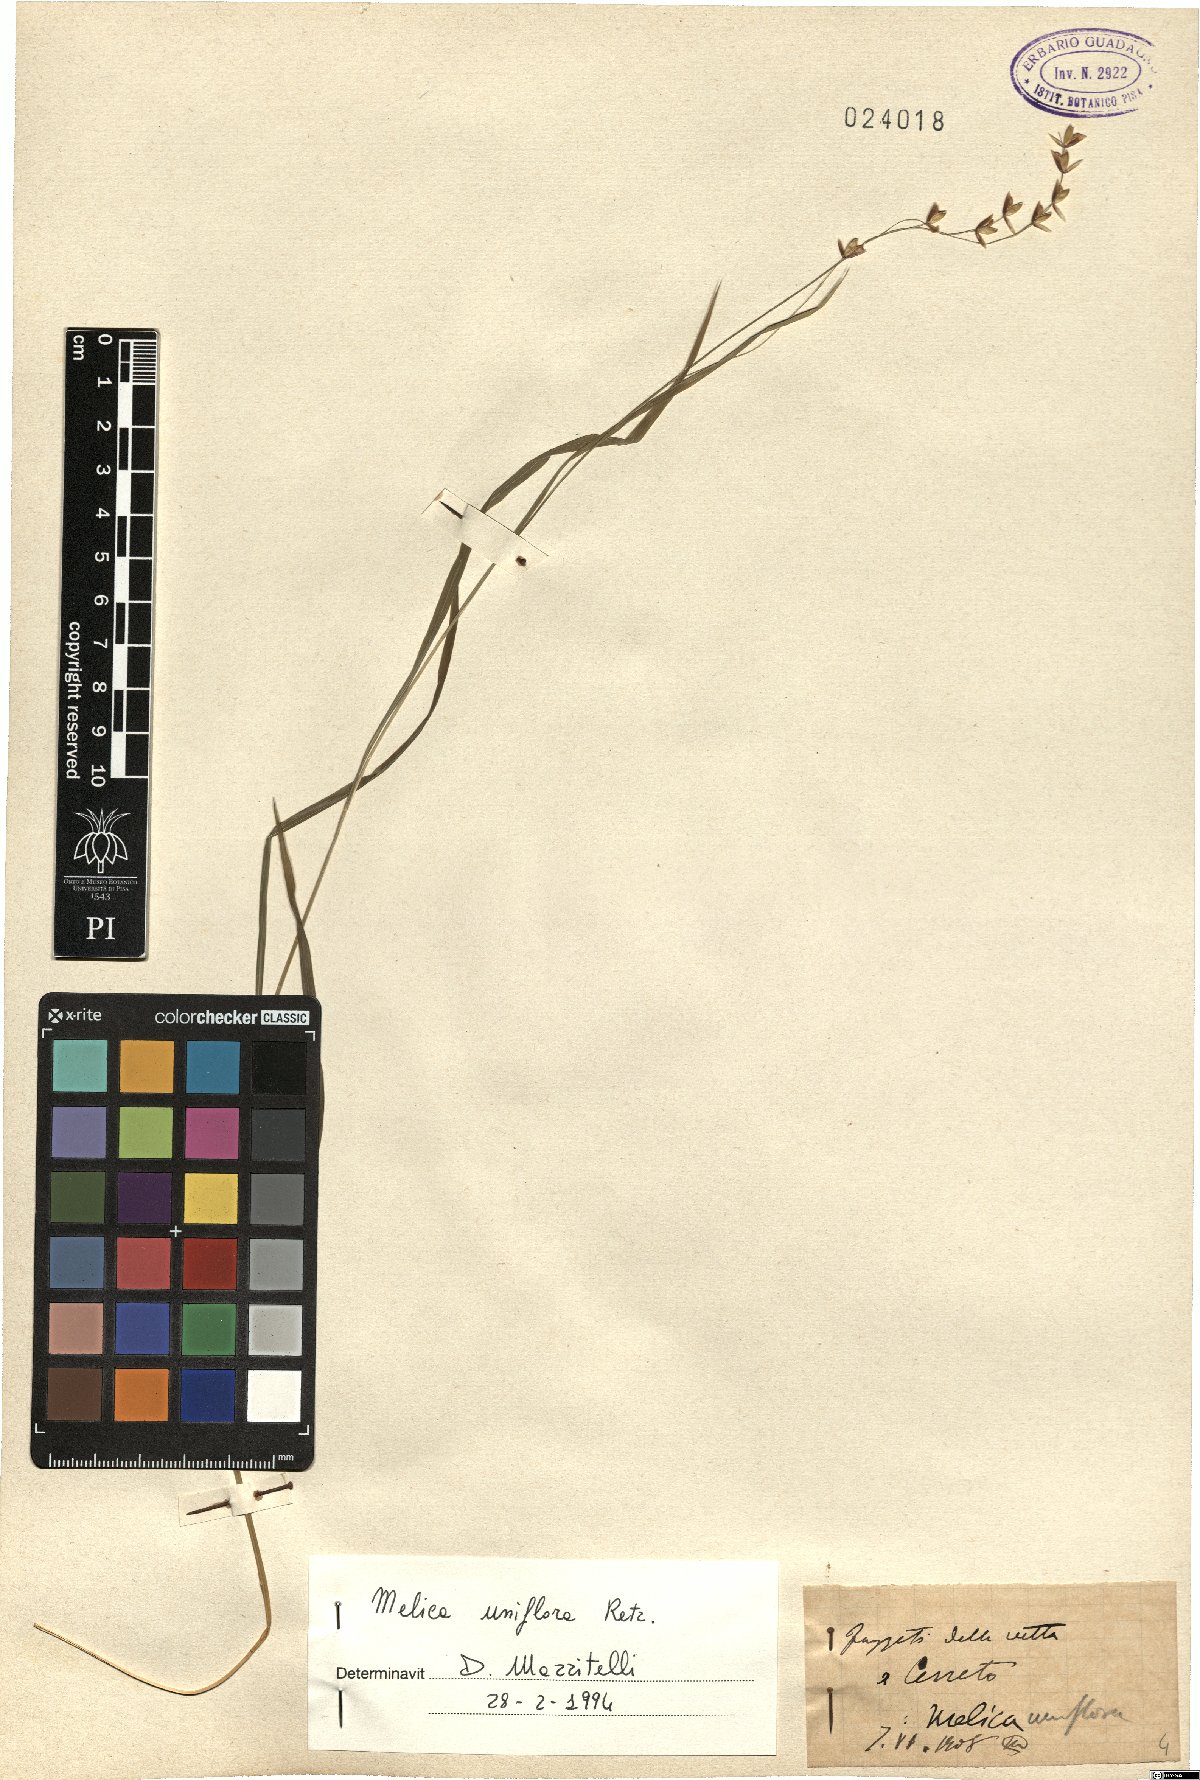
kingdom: Plantae
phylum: Tracheophyta
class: Liliopsida
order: Poales
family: Poaceae
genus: Melica
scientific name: Melica uniflora
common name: Wood melick
